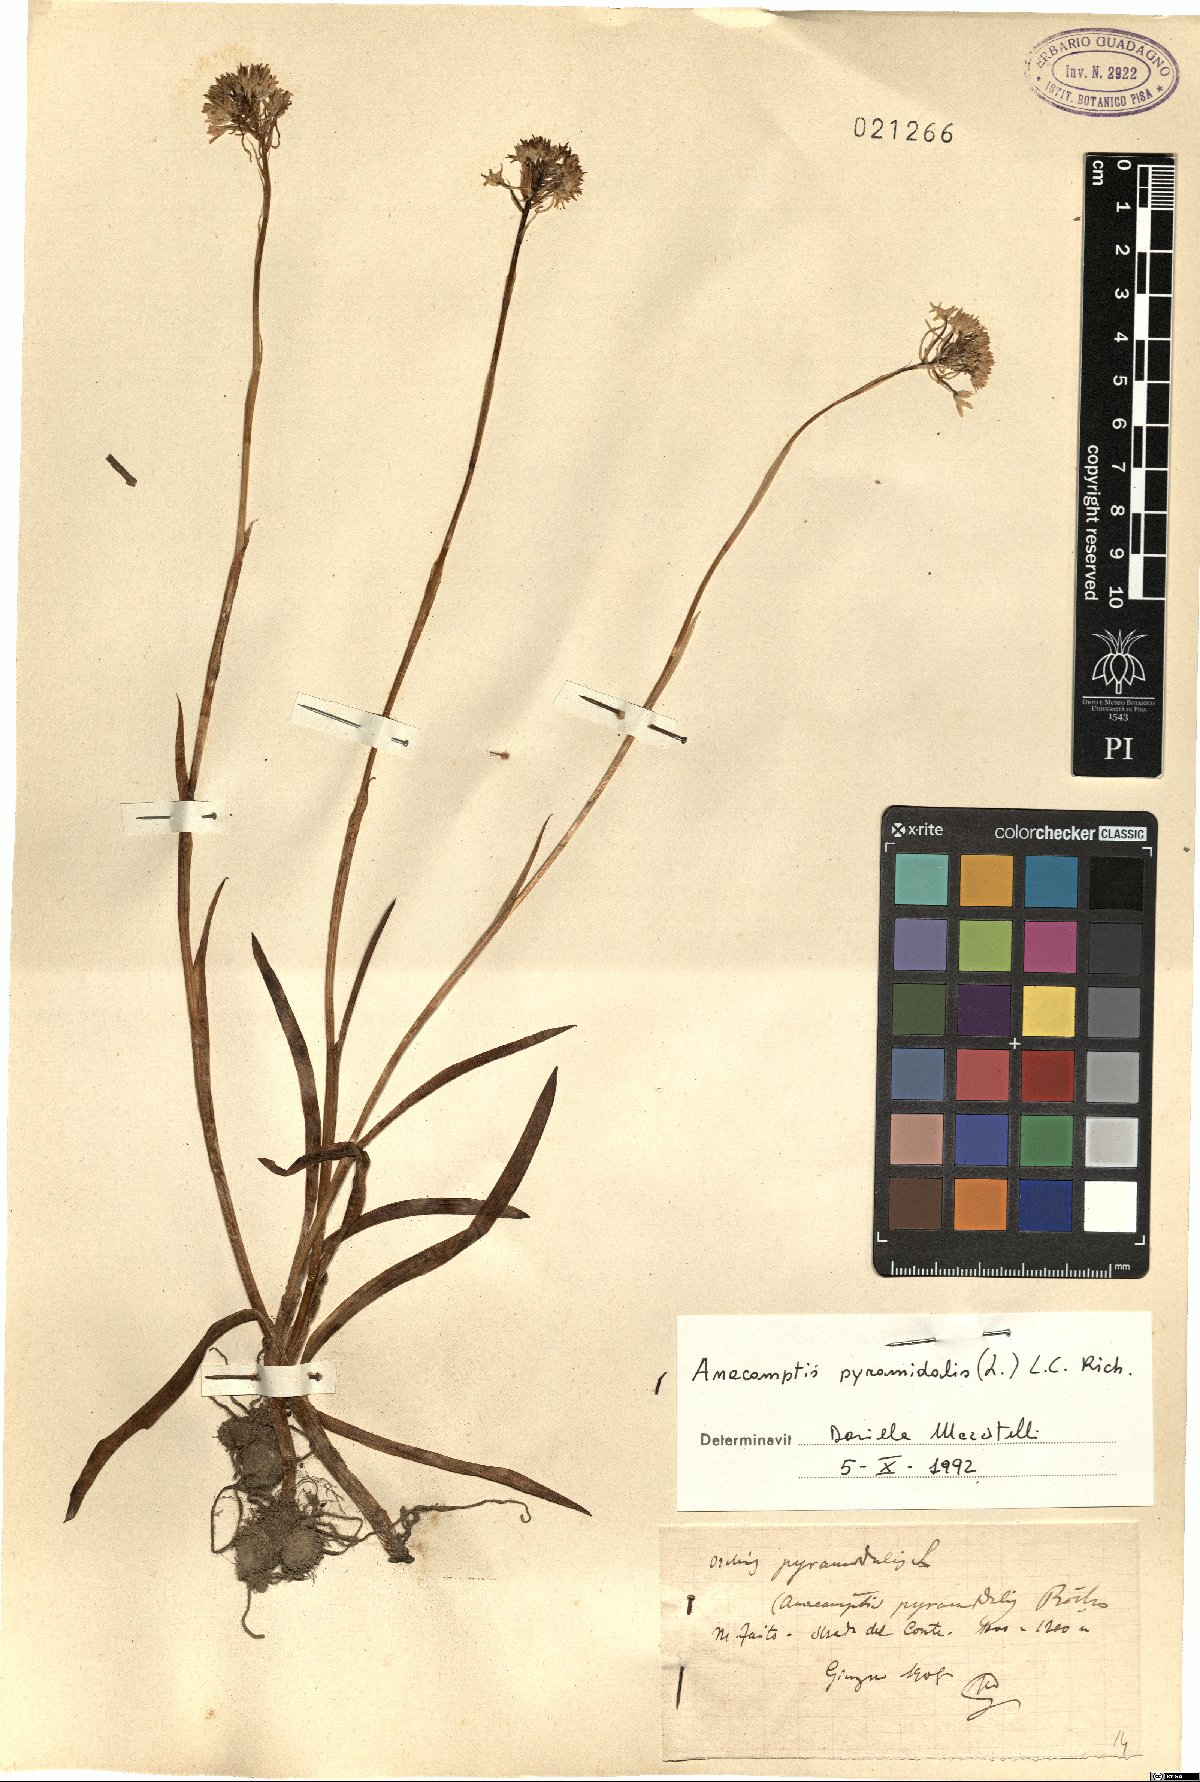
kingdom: Plantae
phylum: Tracheophyta
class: Liliopsida
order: Asparagales
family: Orchidaceae
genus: Anacamptis
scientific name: Anacamptis pyramidalis
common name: Pyramidal orchid
